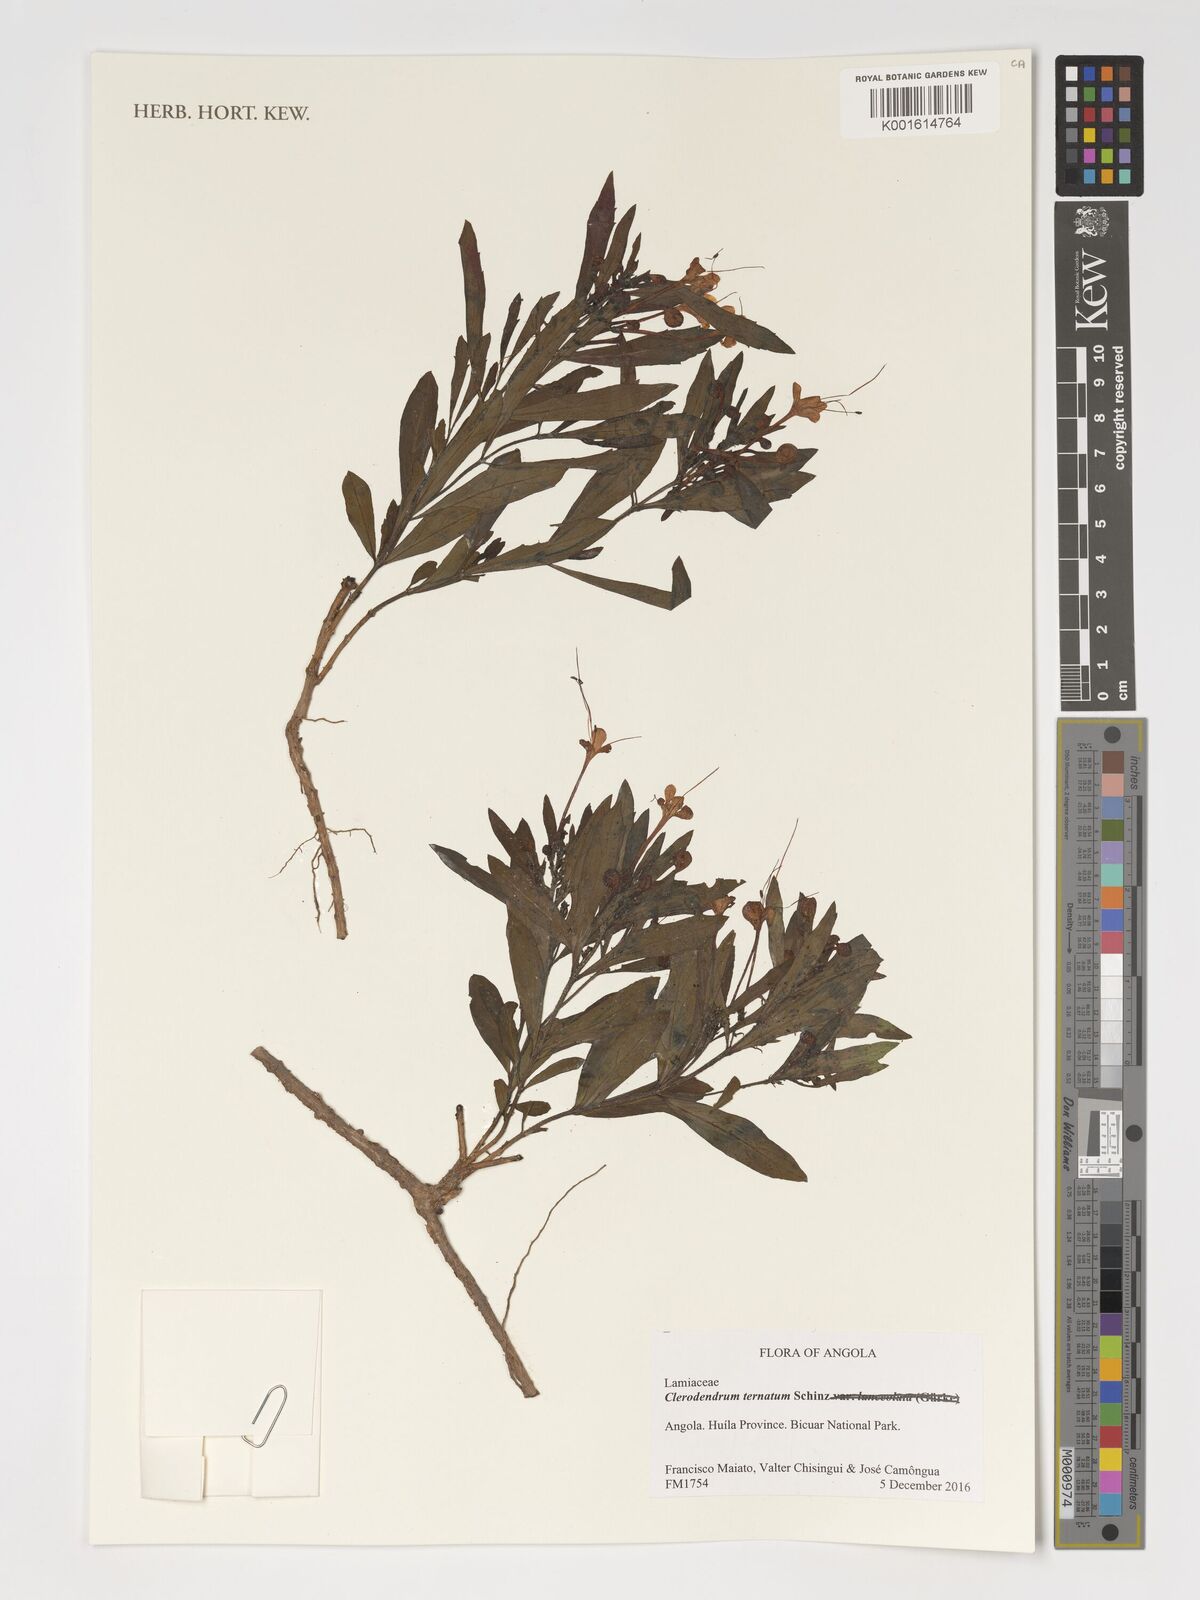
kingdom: Plantae
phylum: Tracheophyta
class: Magnoliopsida
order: Lamiales
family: Lamiaceae
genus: Clerodendrum
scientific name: Clerodendrum ternatum
